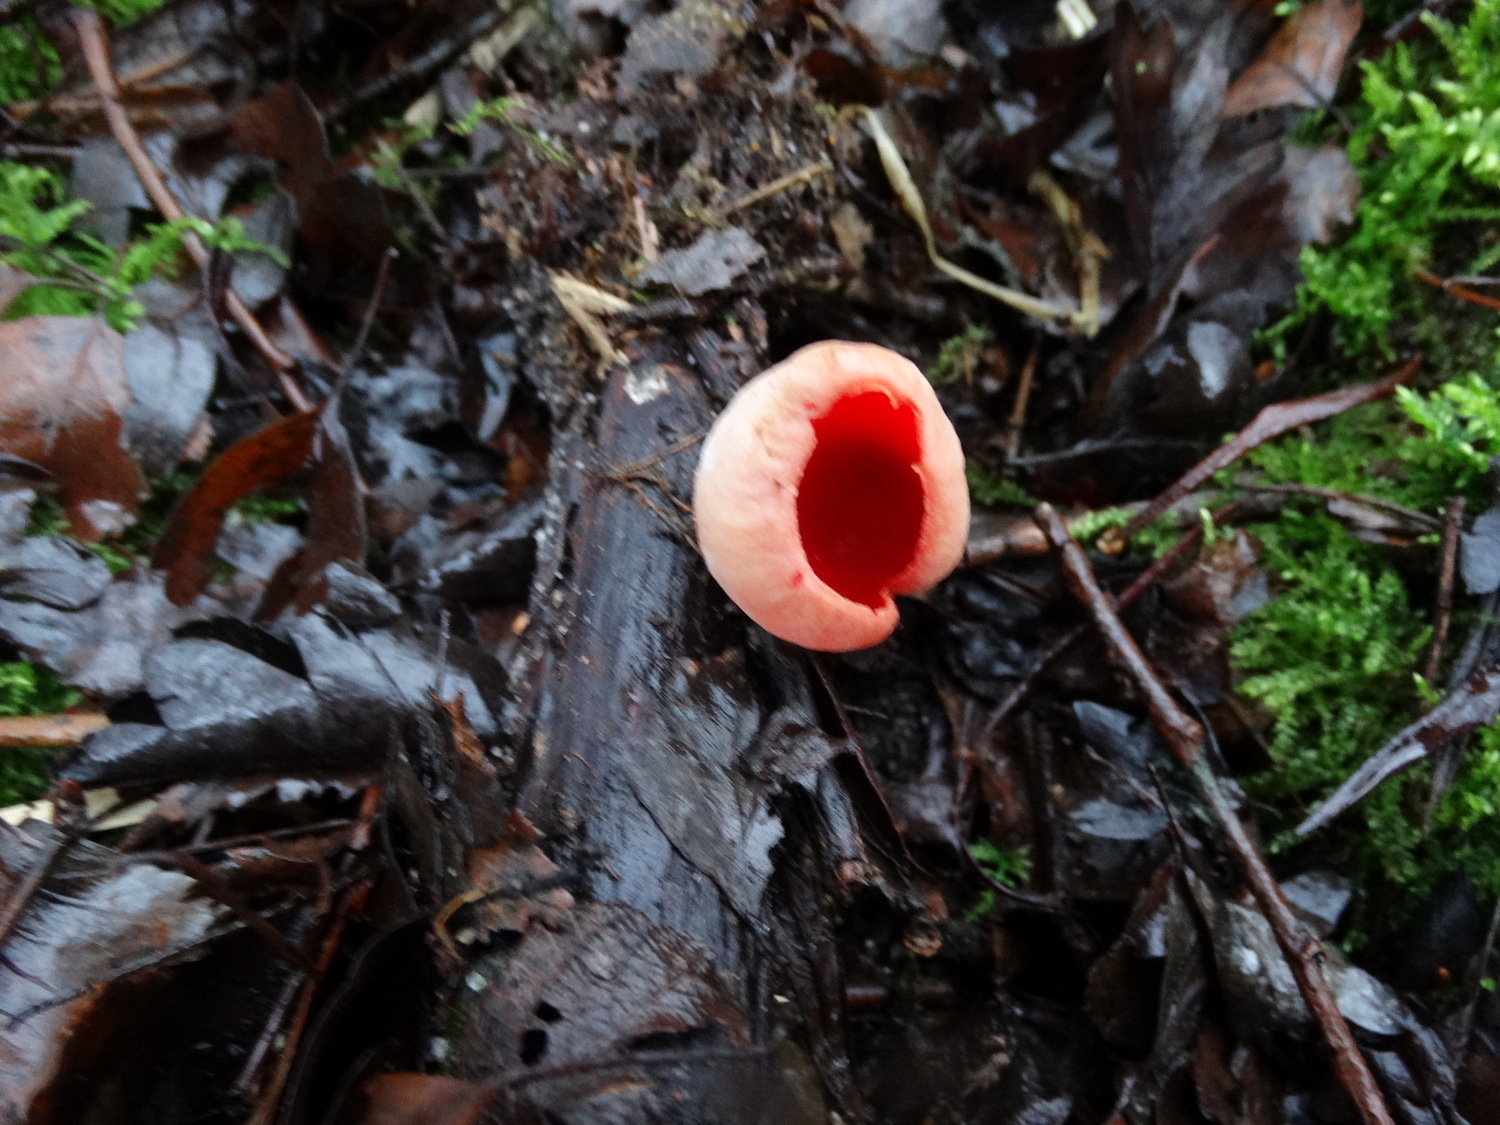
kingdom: Fungi
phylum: Ascomycota
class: Pezizomycetes
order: Pezizales
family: Sarcoscyphaceae
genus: Sarcoscypha
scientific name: Sarcoscypha austriaca
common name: krølhåret pragtbæger
